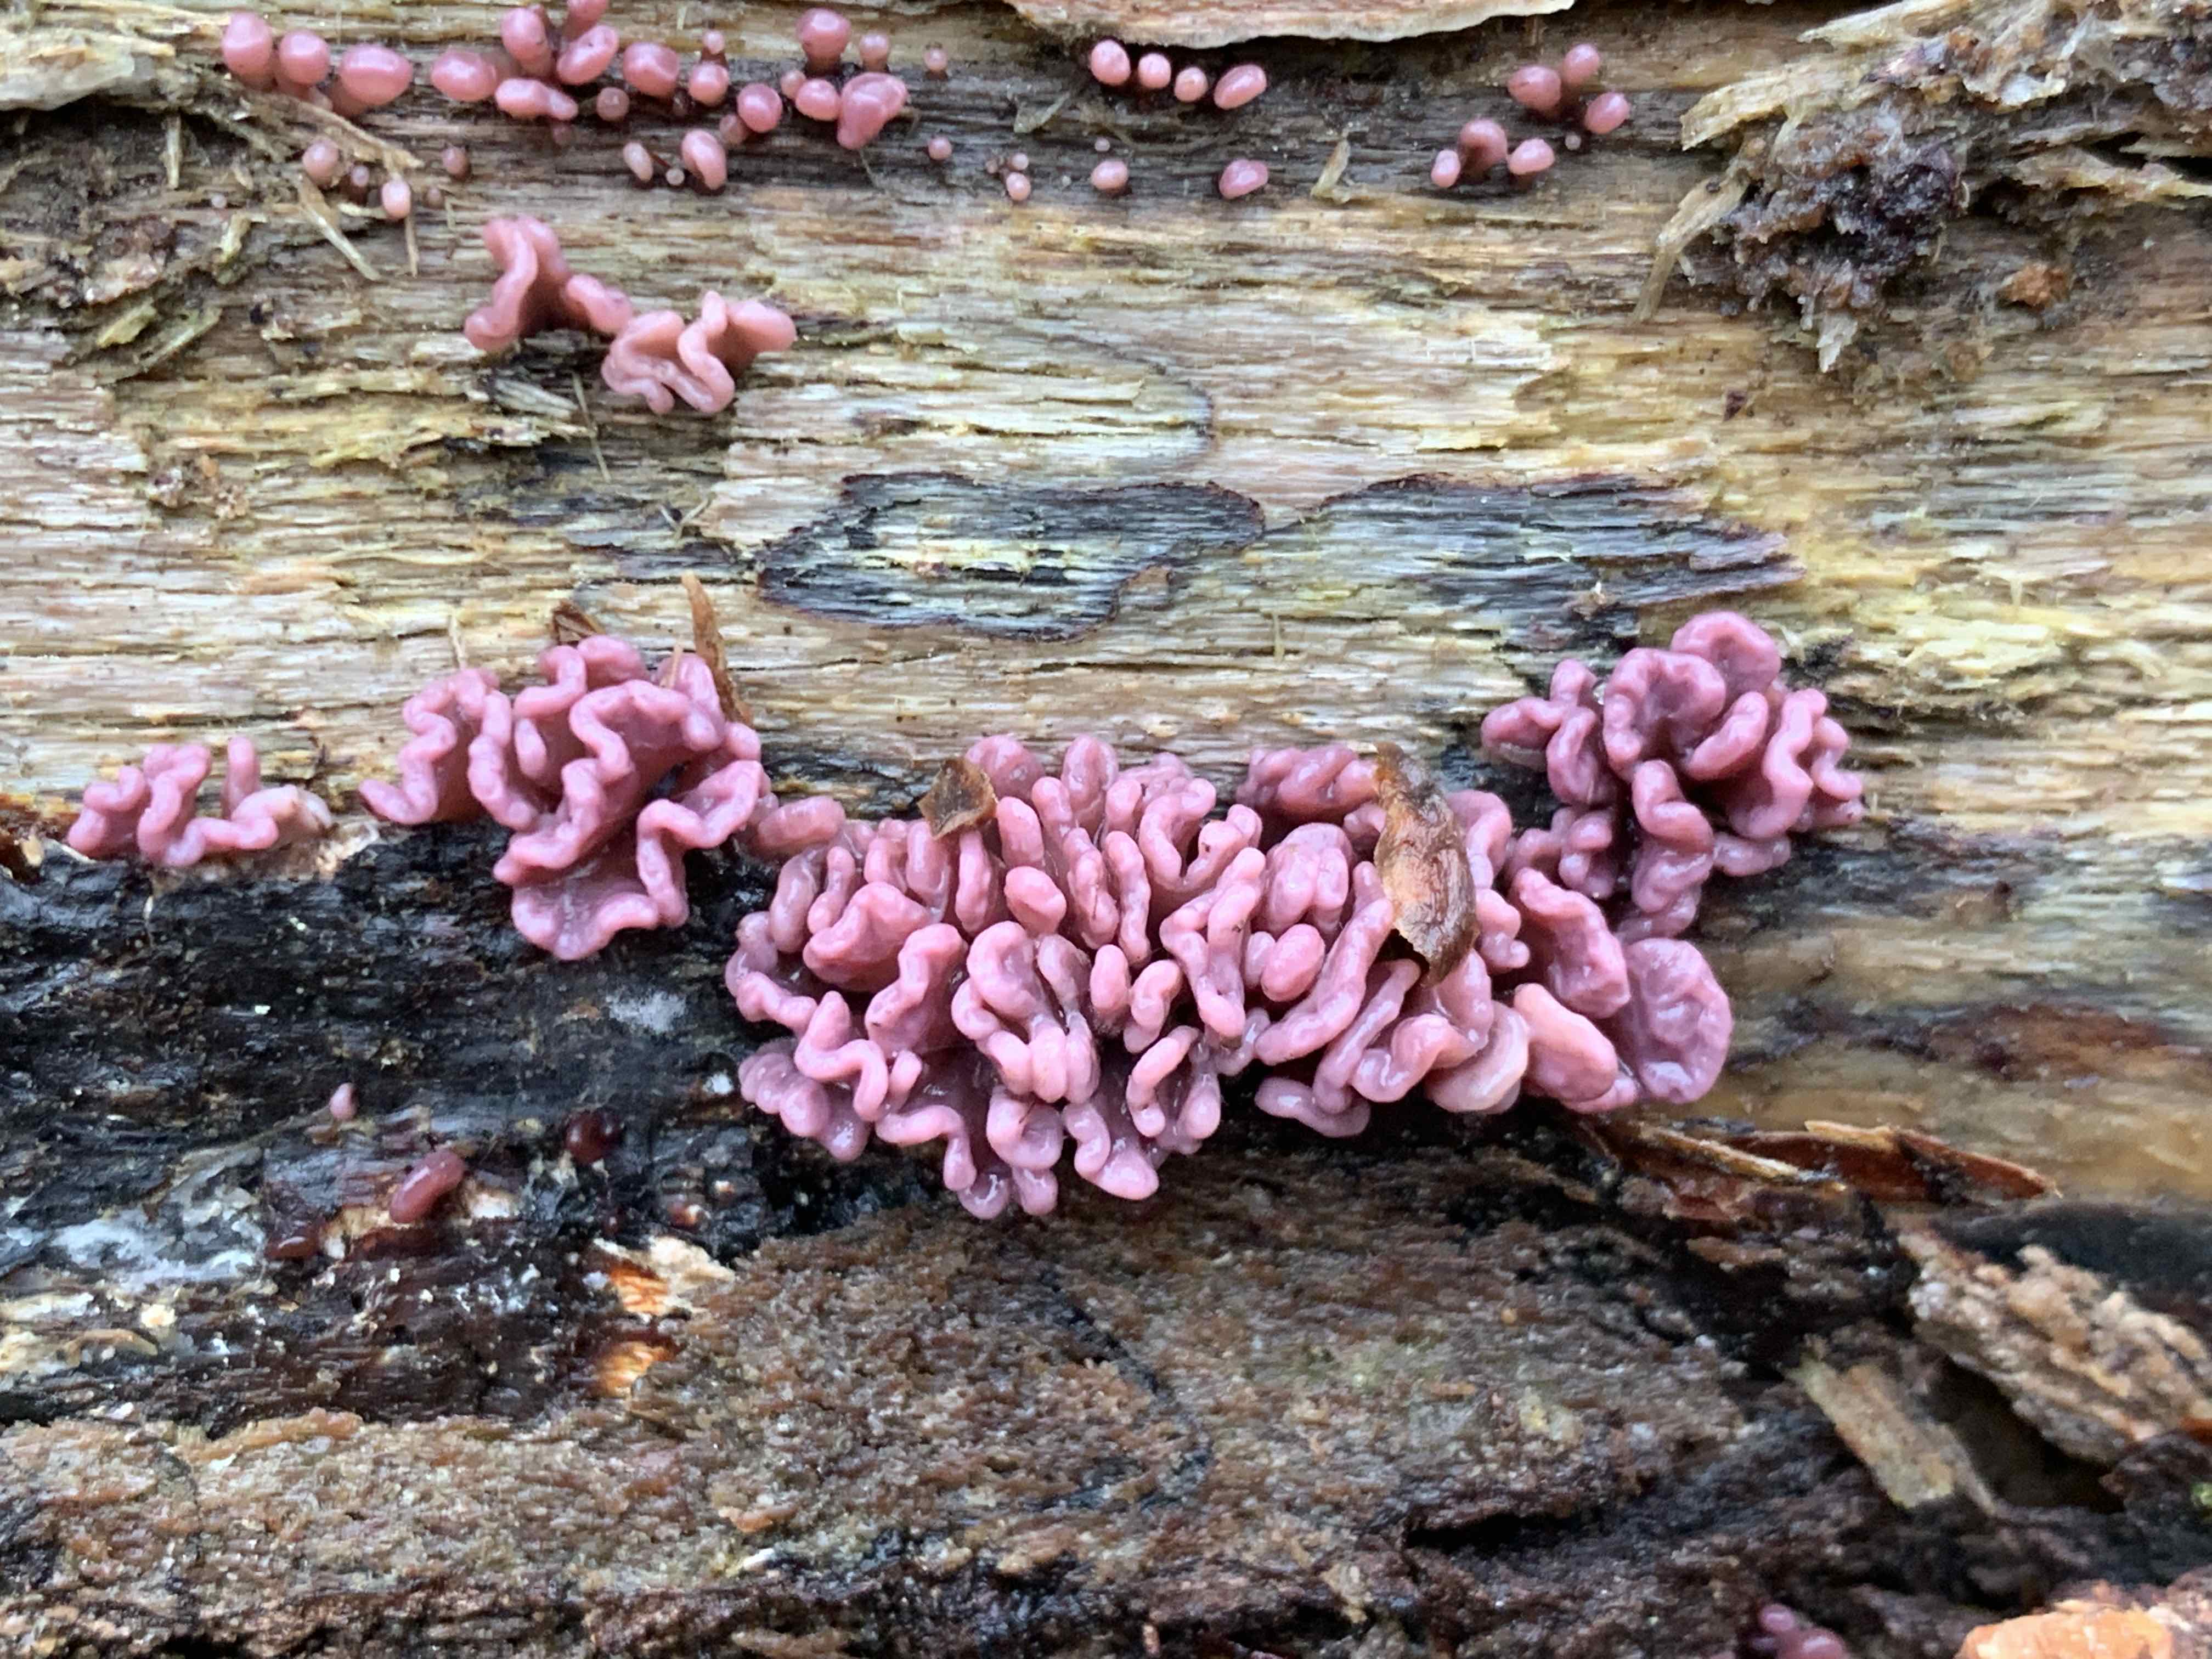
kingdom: Fungi
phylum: Ascomycota
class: Leotiomycetes
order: Helotiales
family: Gelatinodiscaceae
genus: Ascocoryne
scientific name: Ascocoryne sarcoides
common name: rødlilla sejskive
